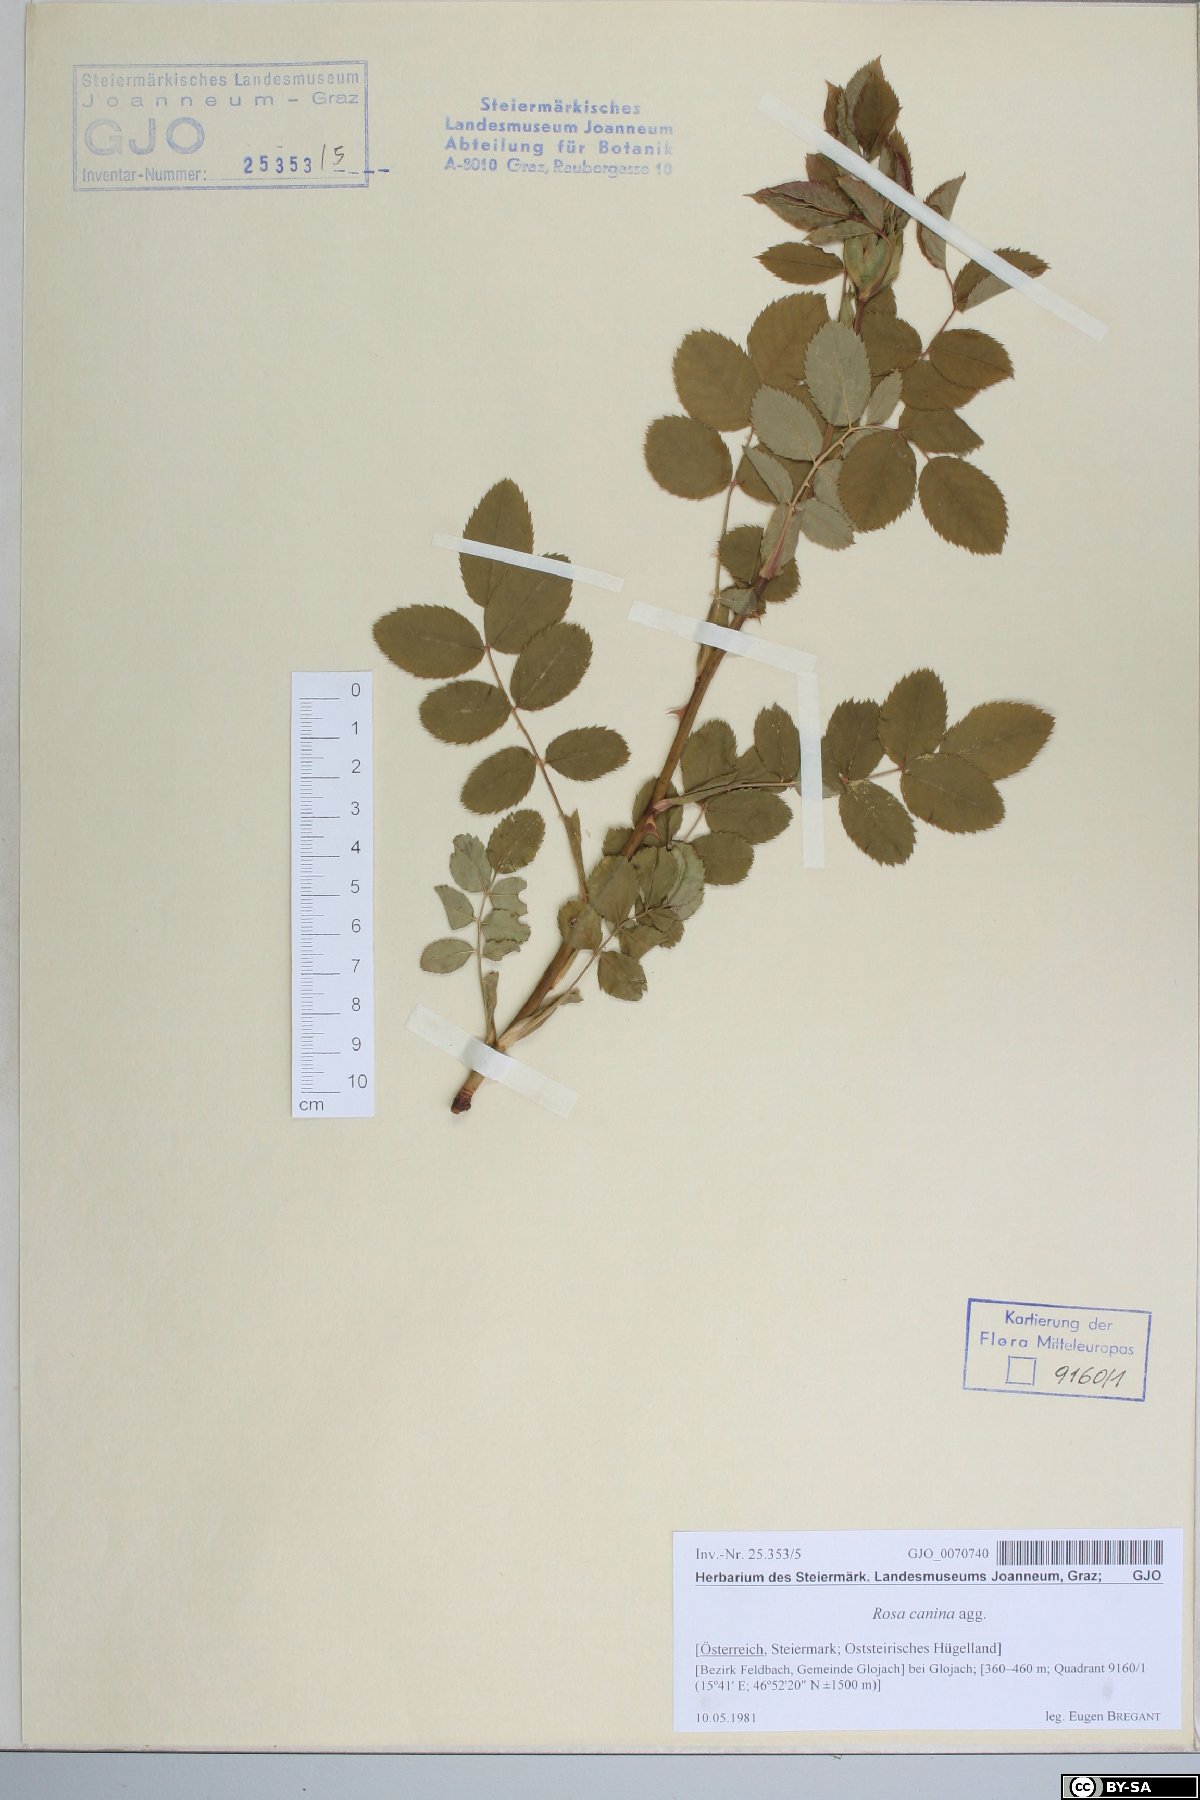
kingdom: Plantae
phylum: Tracheophyta
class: Magnoliopsida
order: Rosales
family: Rosaceae
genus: Rosa
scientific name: Rosa canina
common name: Dog rose
